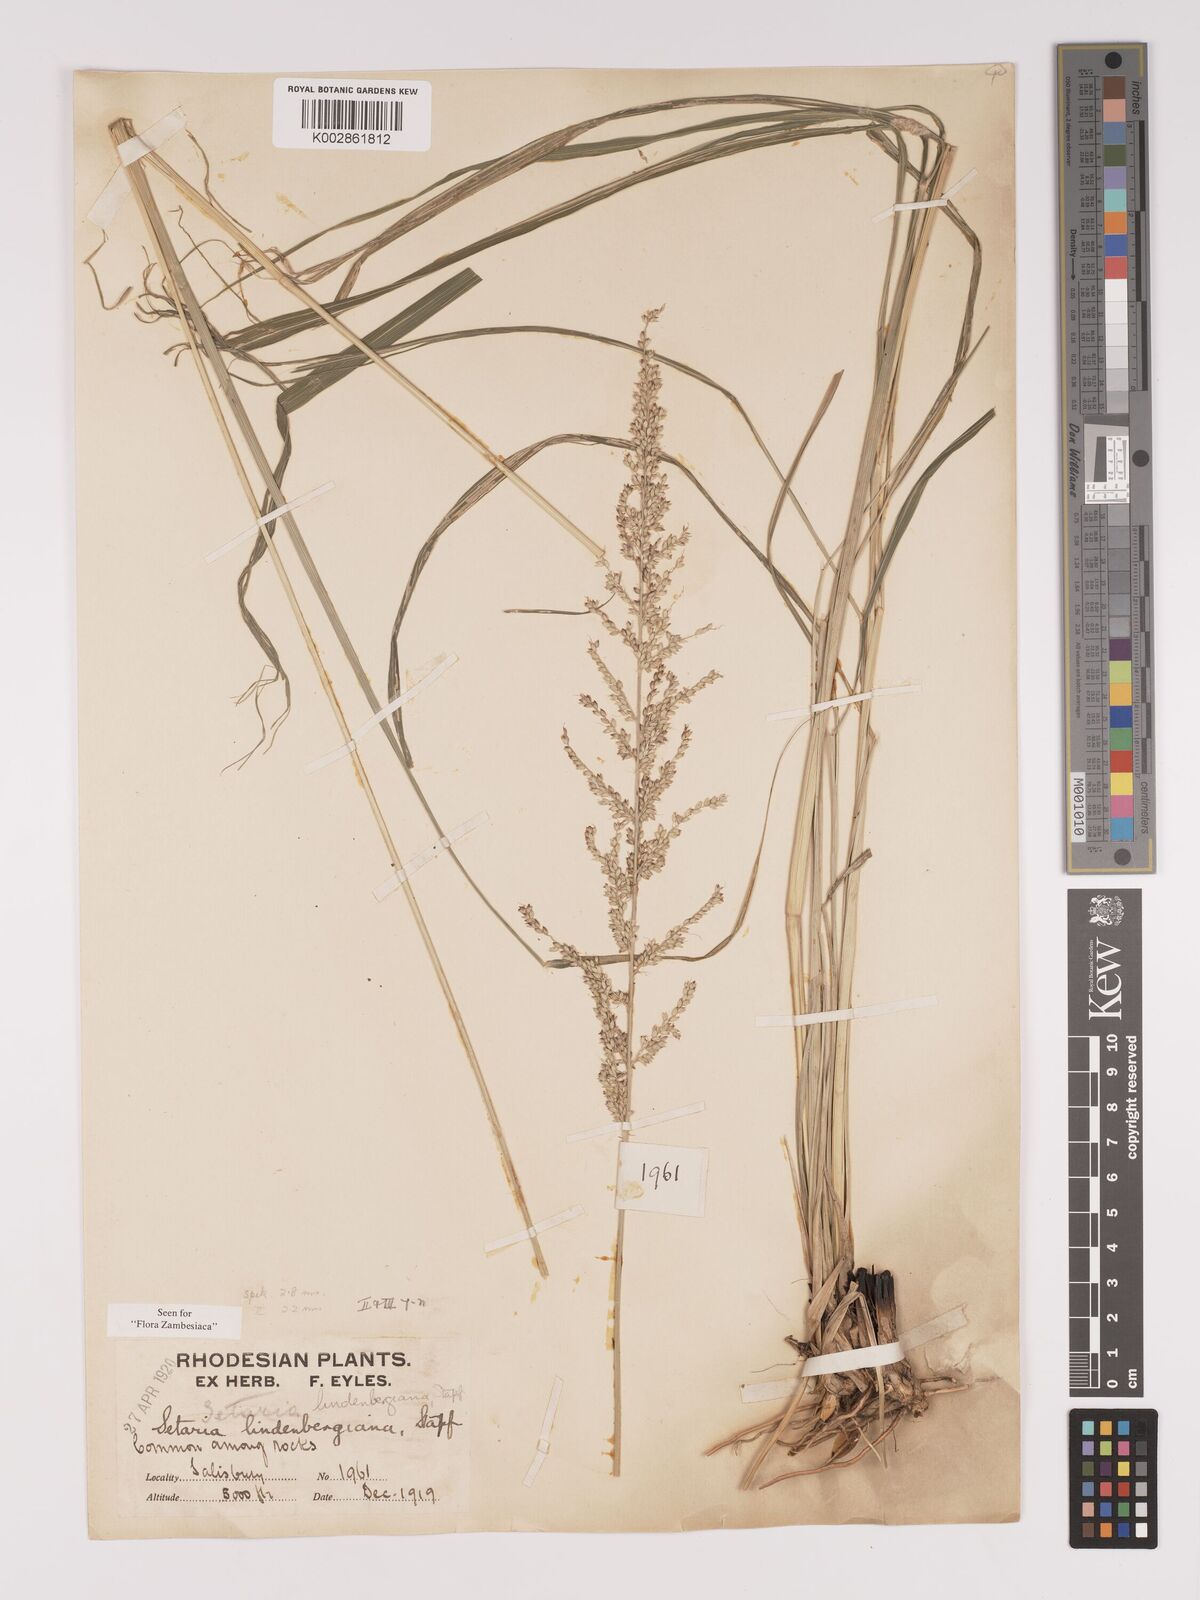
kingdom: Plantae
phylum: Tracheophyta
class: Liliopsida
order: Poales
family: Poaceae
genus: Setaria
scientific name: Setaria lindenbergiana
